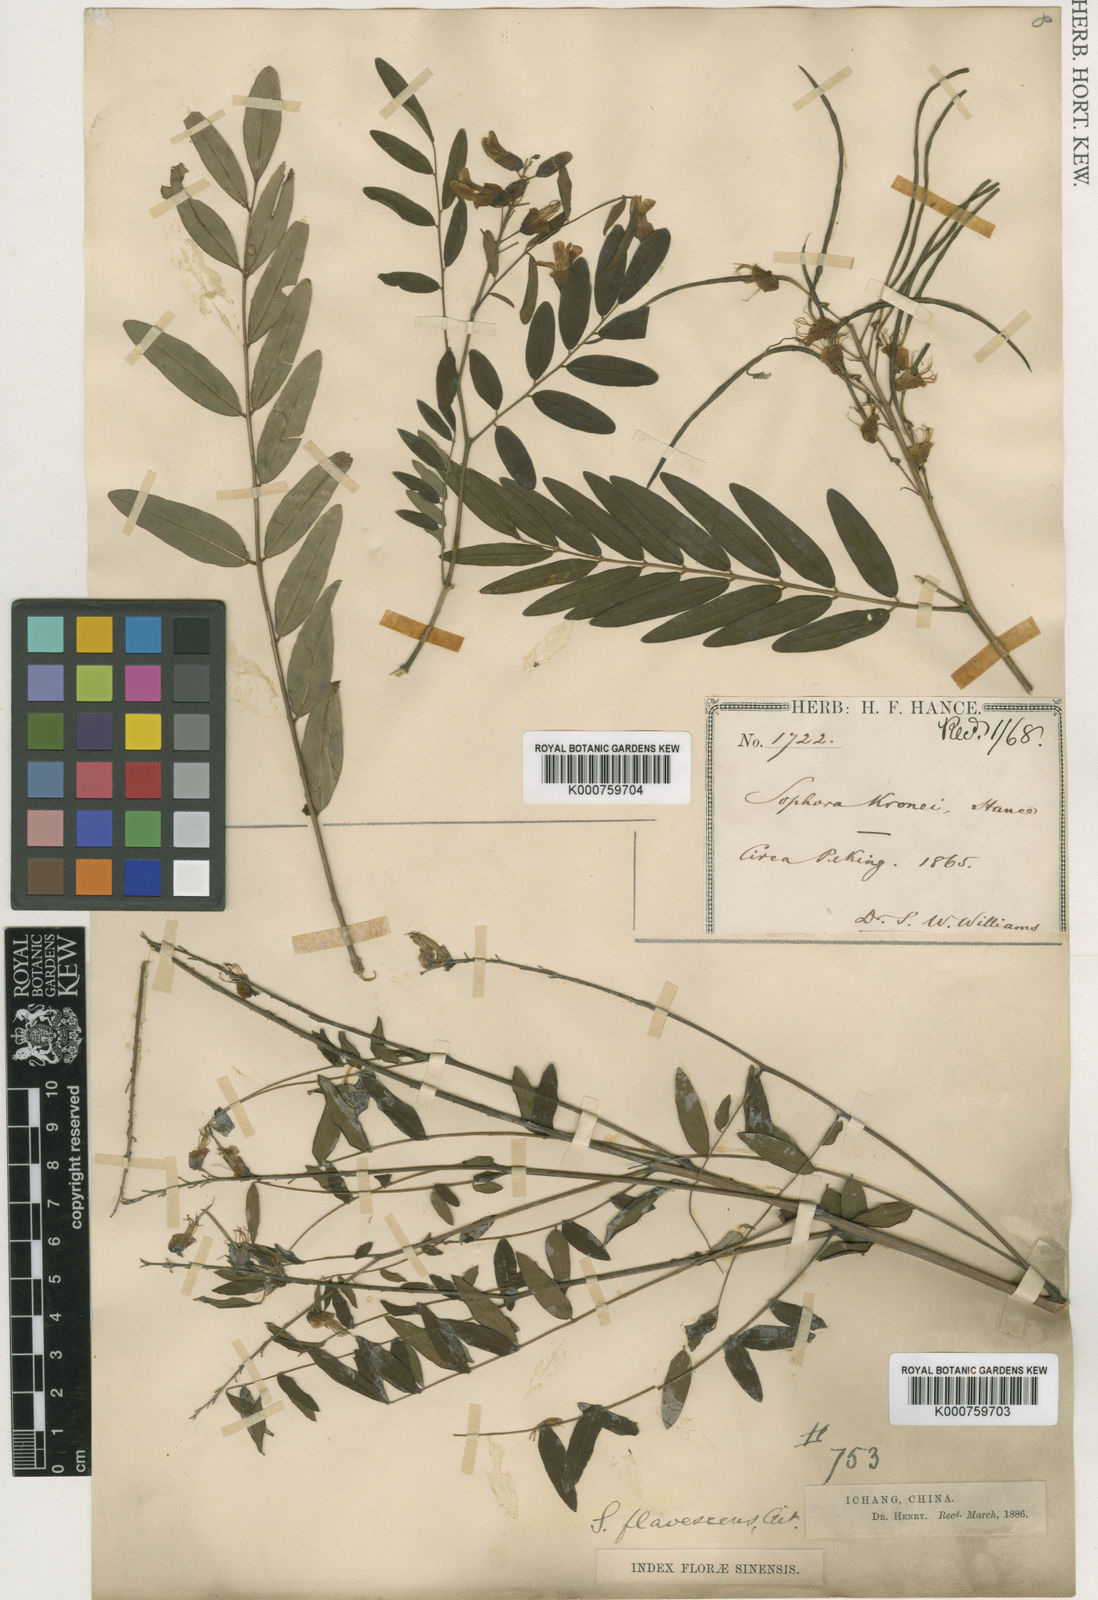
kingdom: Plantae
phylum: Tracheophyta
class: Magnoliopsida
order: Fabales
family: Fabaceae
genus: Sophora
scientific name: Sophora flavescens
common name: Shrubby sophora
